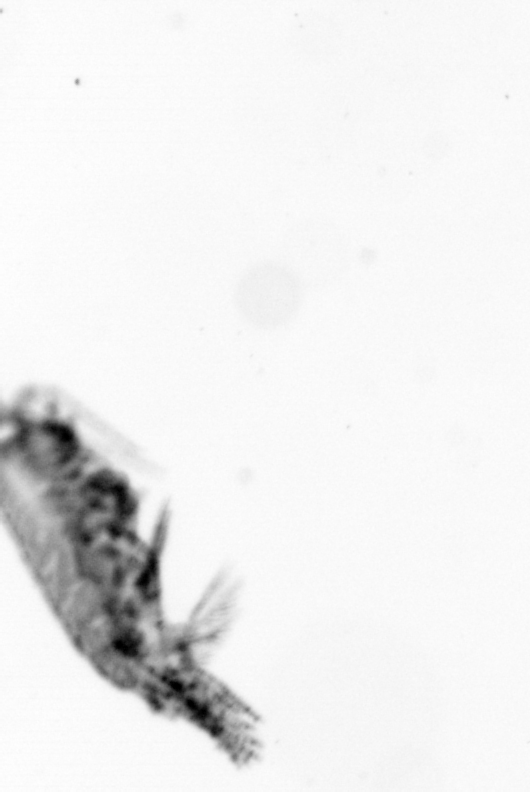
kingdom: Animalia
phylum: Arthropoda
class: Copepoda
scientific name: Copepoda
